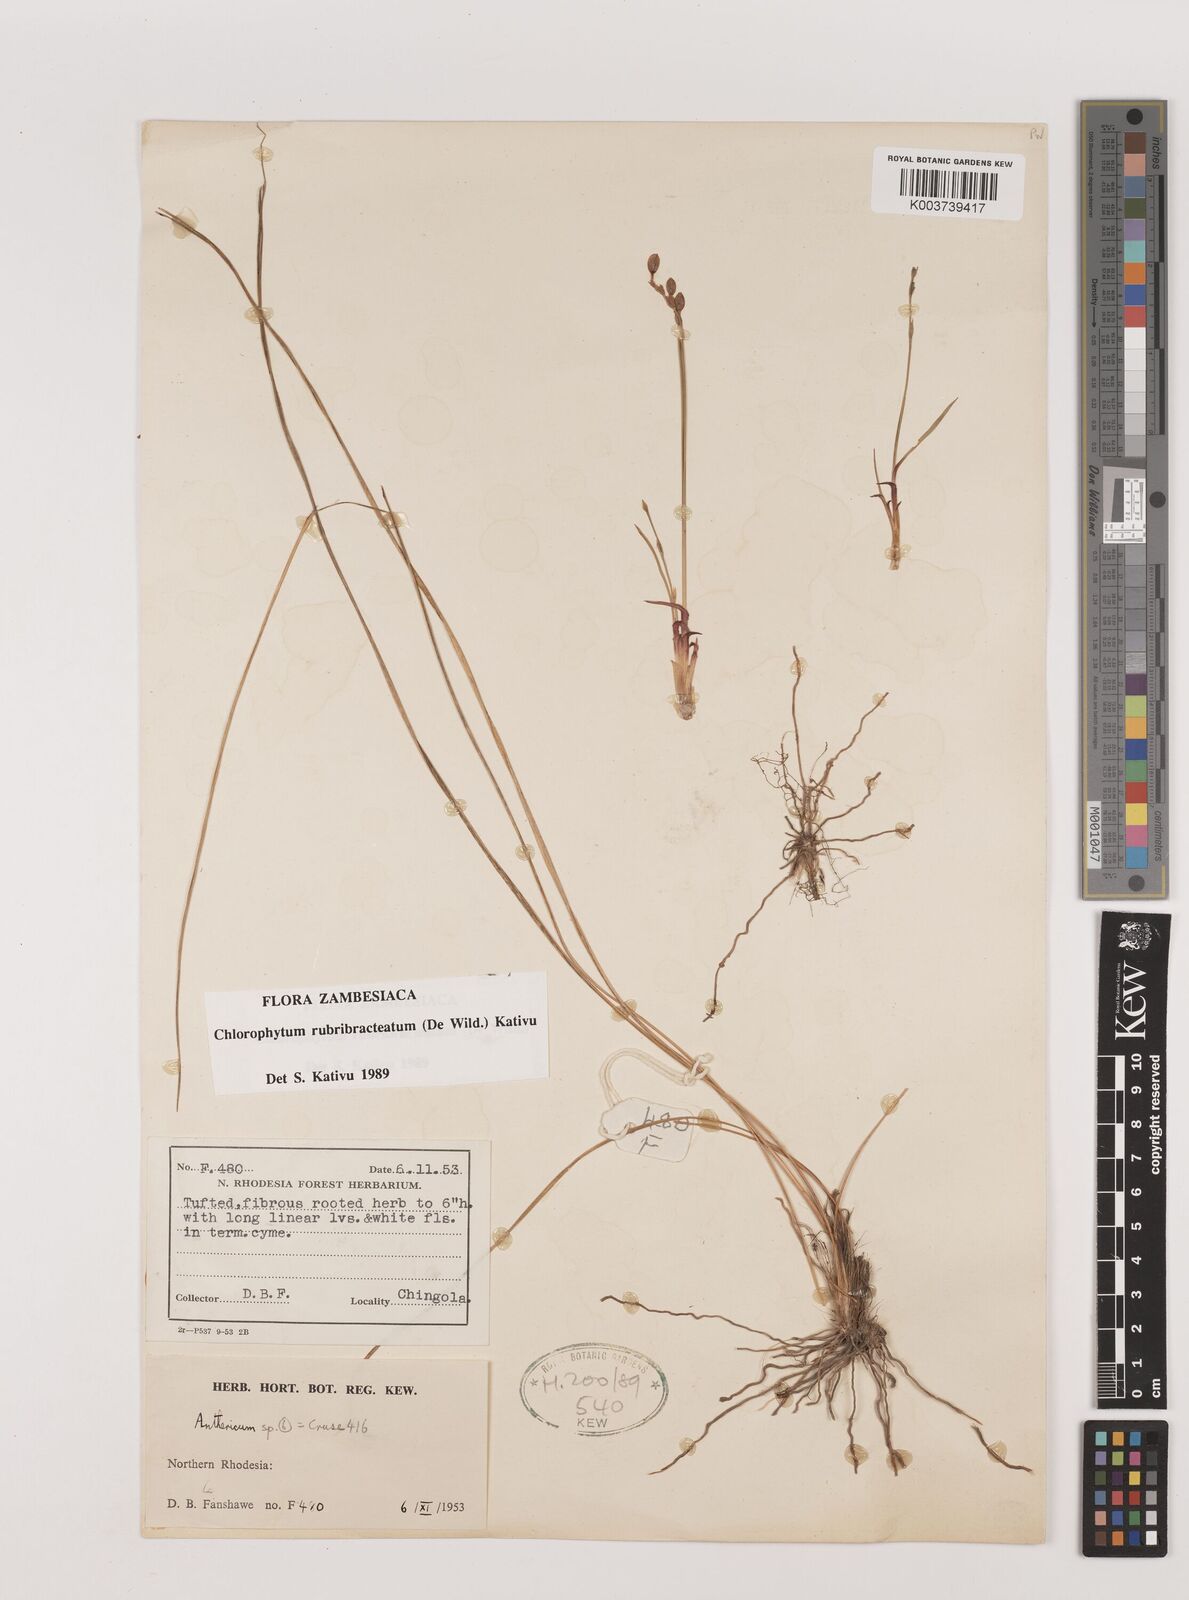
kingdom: Plantae
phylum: Tracheophyta
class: Liliopsida
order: Asparagales
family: Asparagaceae
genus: Chlorophytum
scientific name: Chlorophytum rubribracteatum
